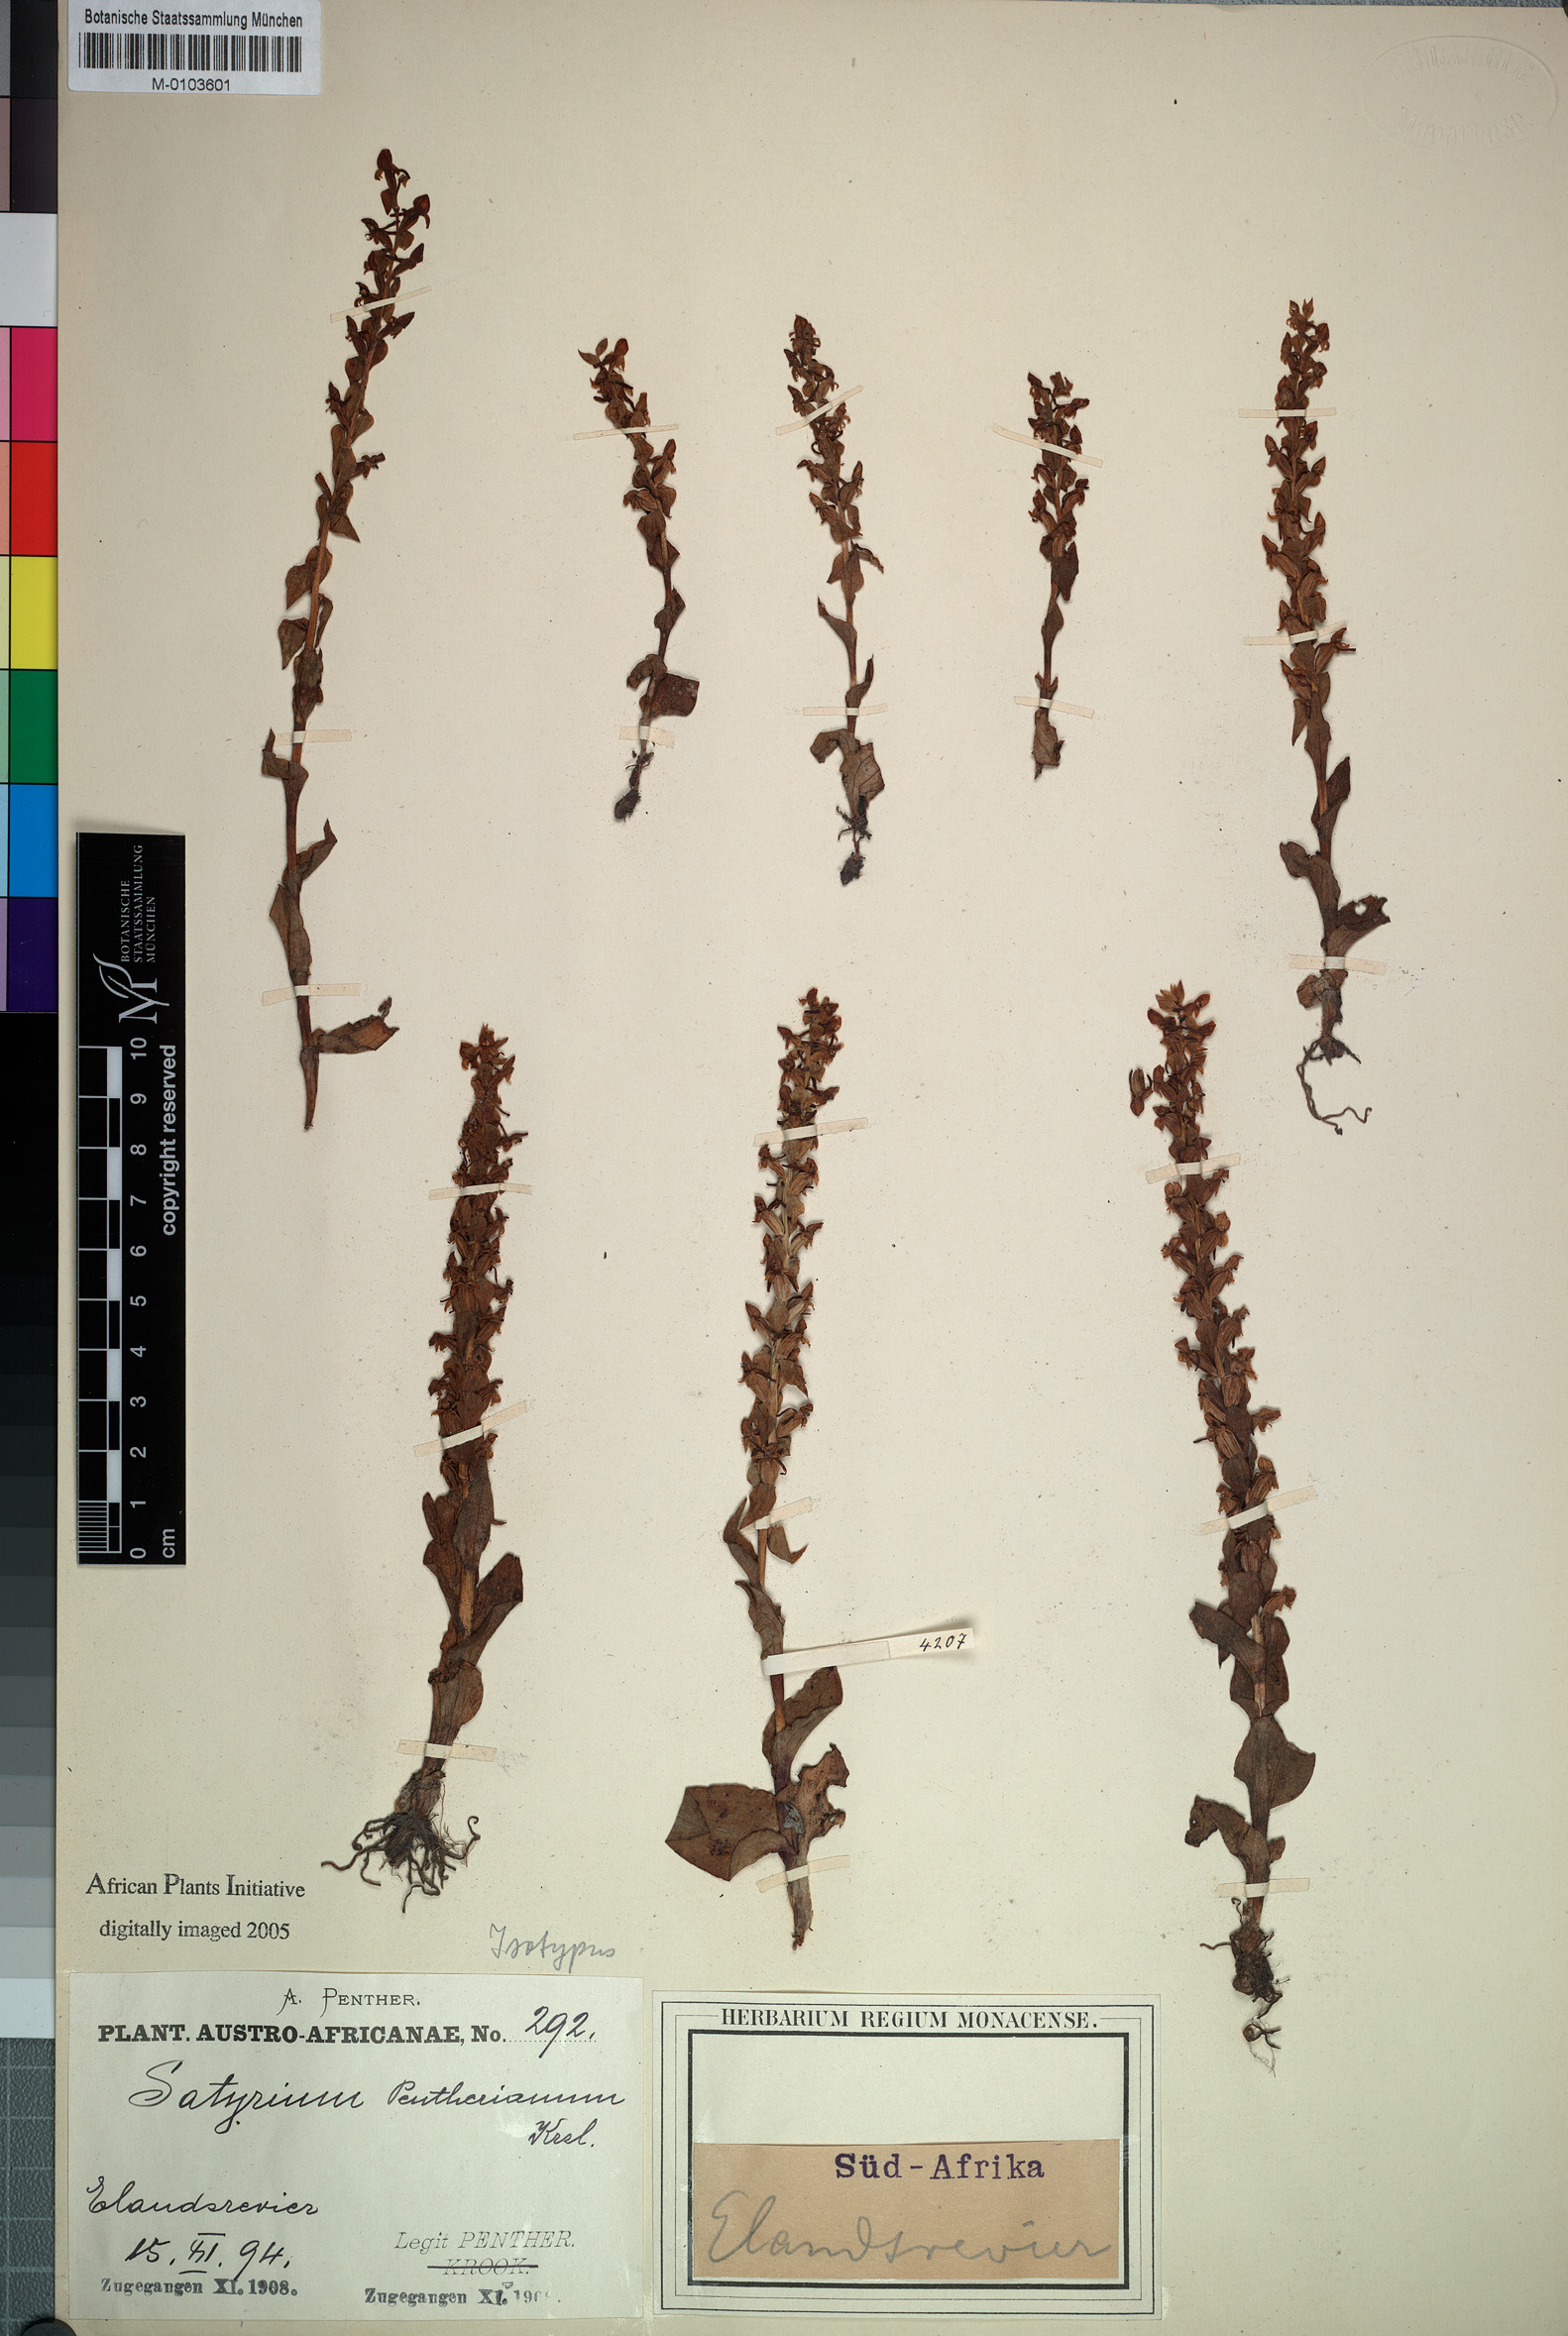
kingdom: Plantae
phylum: Tracheophyta
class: Liliopsida
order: Asparagales
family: Orchidaceae
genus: Satyrium
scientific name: Satyrium pygmaeum
